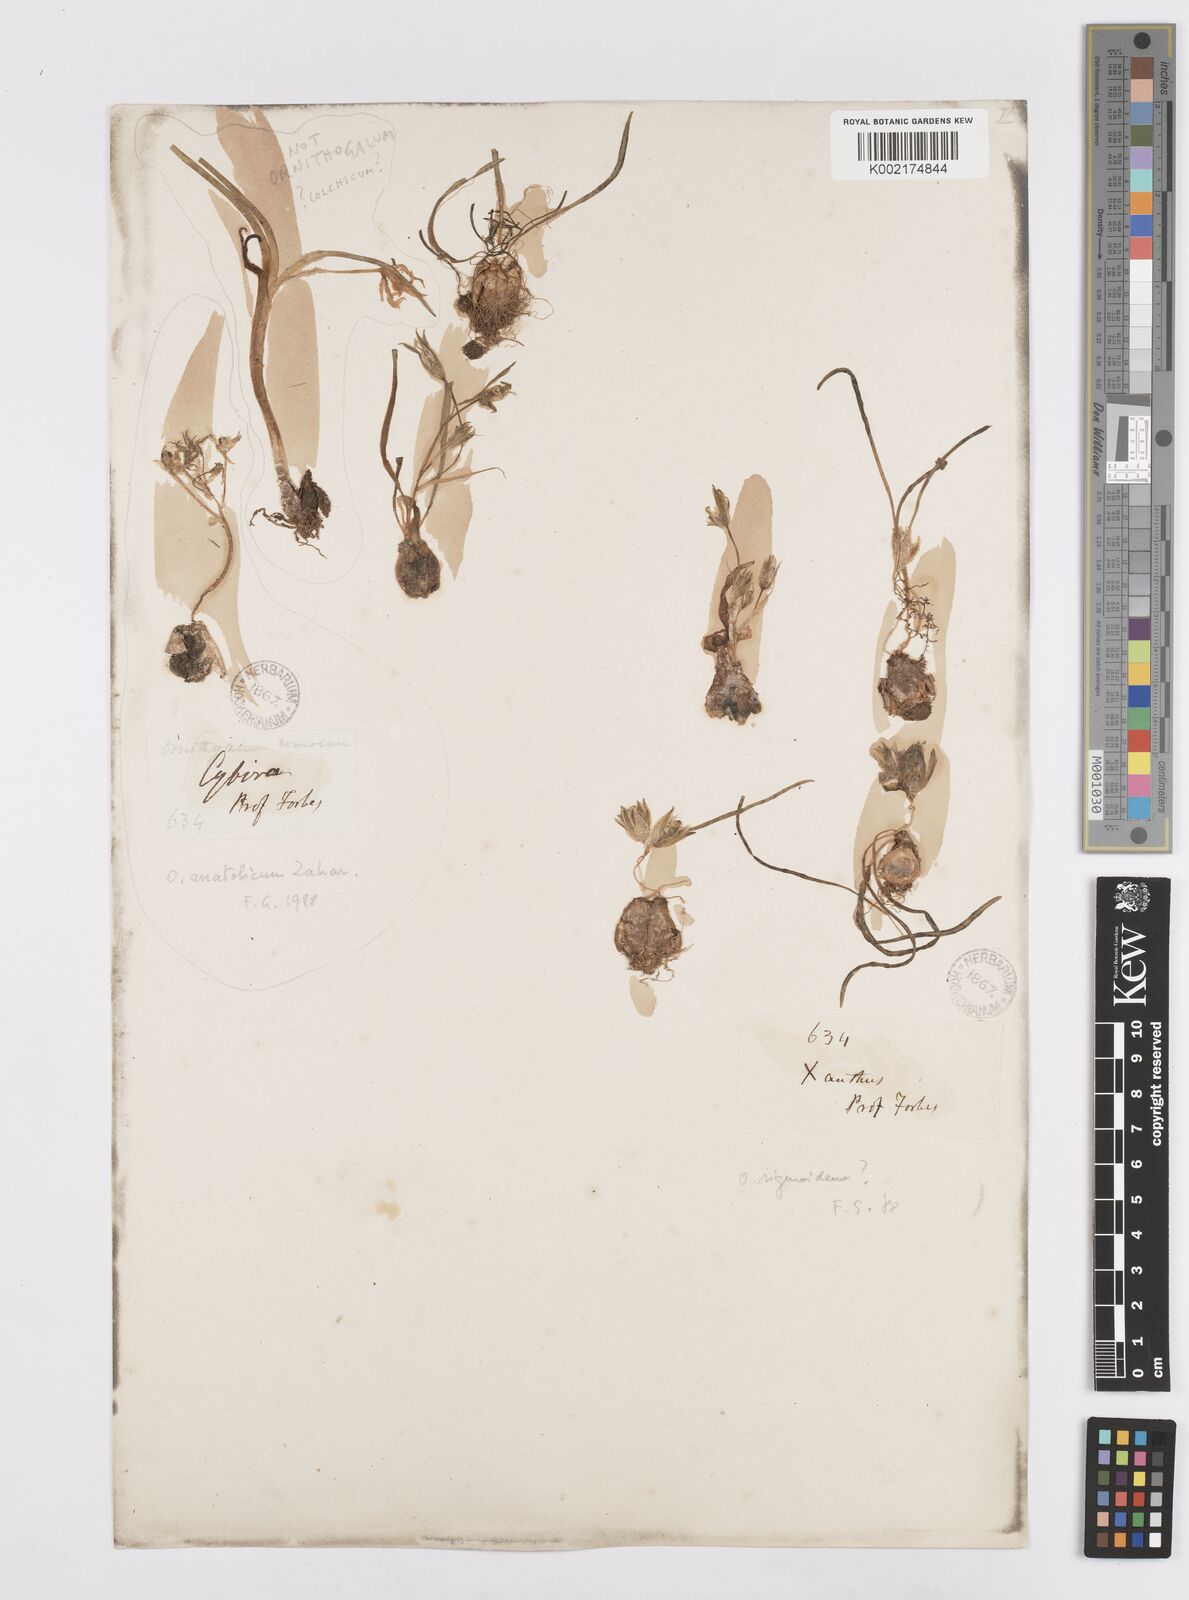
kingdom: Plantae
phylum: Tracheophyta
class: Liliopsida
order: Asparagales
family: Asparagaceae
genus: Ornithogalum
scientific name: Ornithogalum comosum
